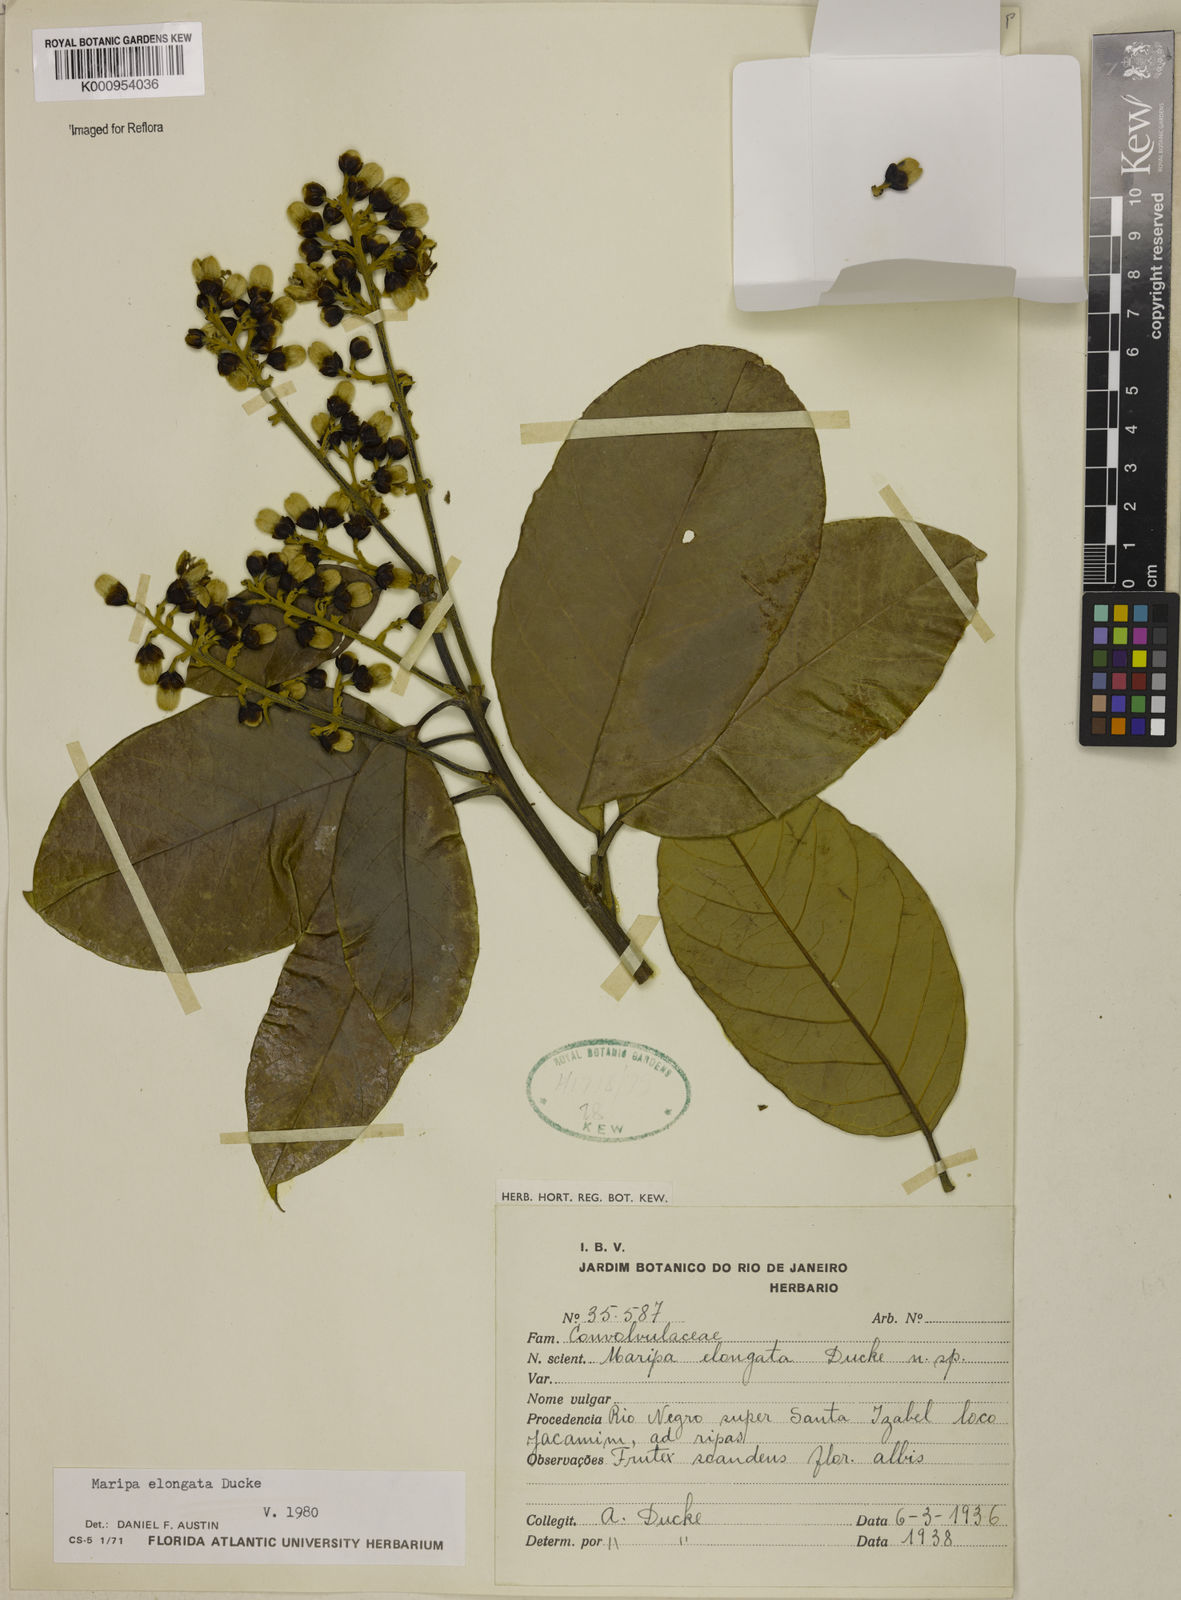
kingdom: Plantae
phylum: Tracheophyta
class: Magnoliopsida
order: Solanales
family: Convolvulaceae
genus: Maripa
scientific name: Maripa elongata
